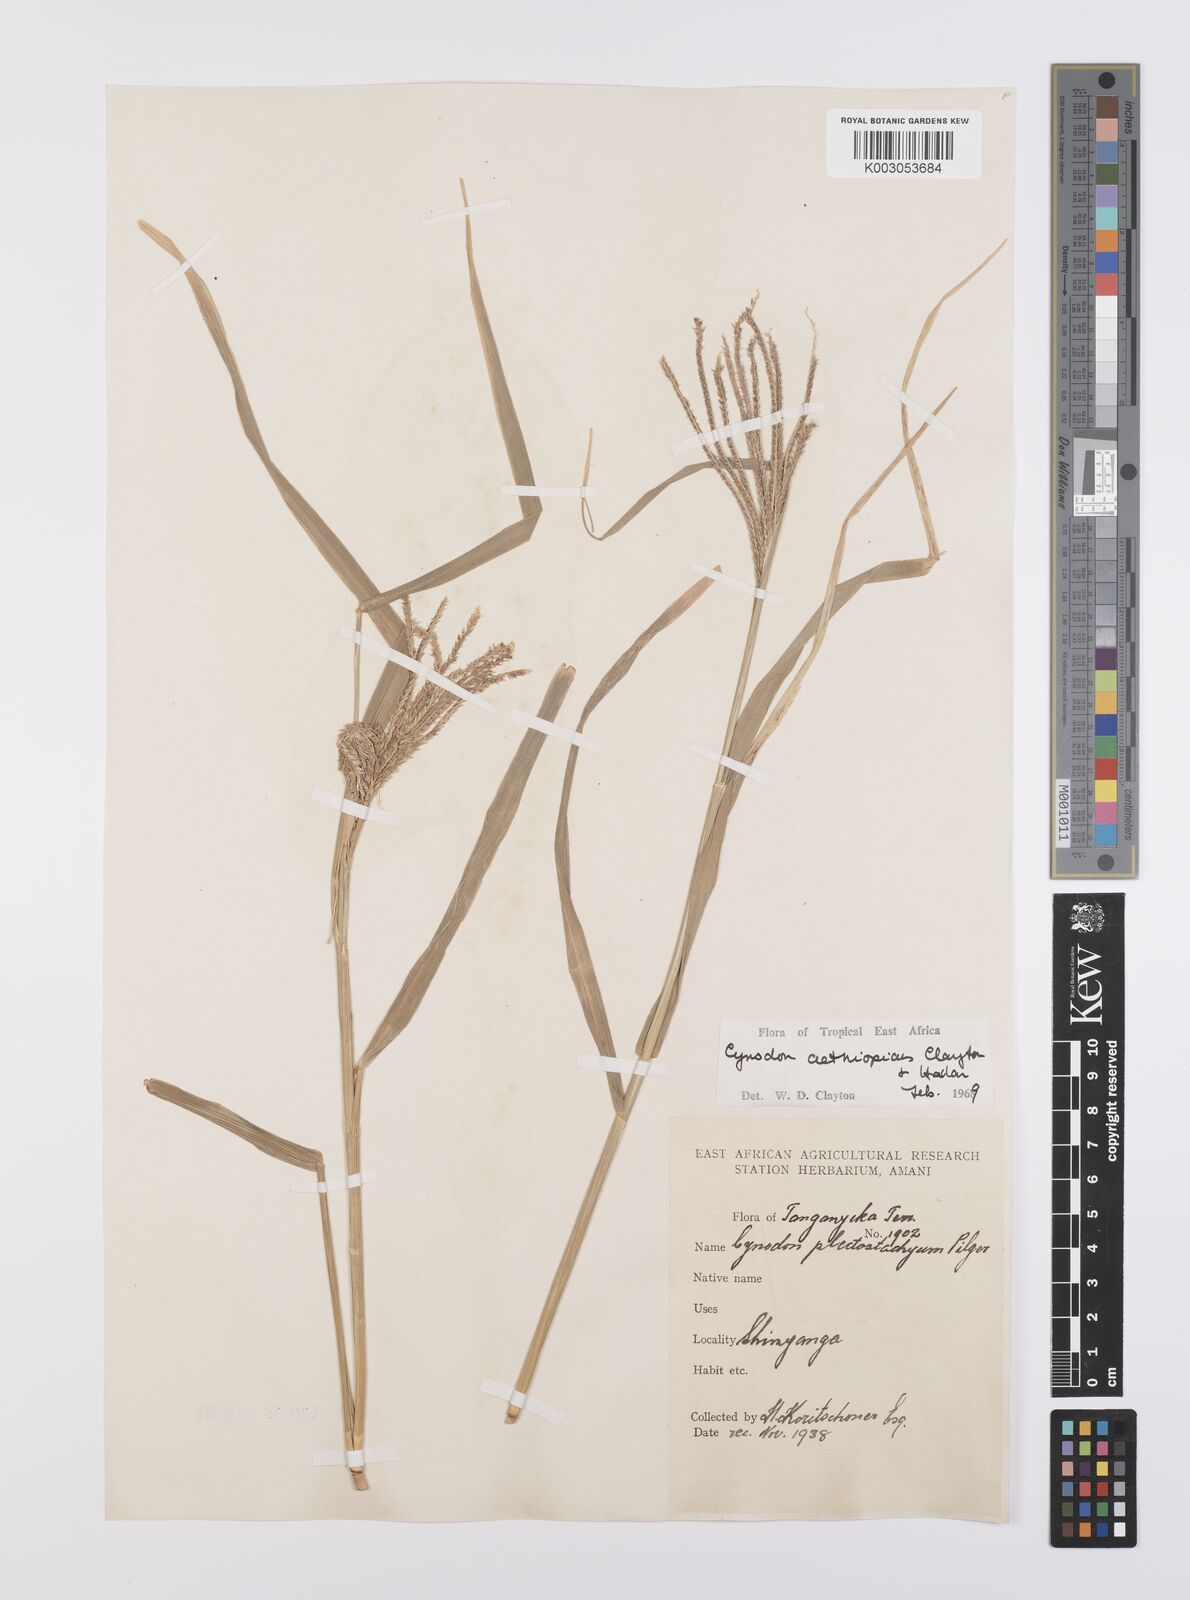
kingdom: Plantae
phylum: Tracheophyta
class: Liliopsida
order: Poales
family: Poaceae
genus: Cynodon
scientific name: Cynodon aethiopicus
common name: Ethiopian dogstooth grass
